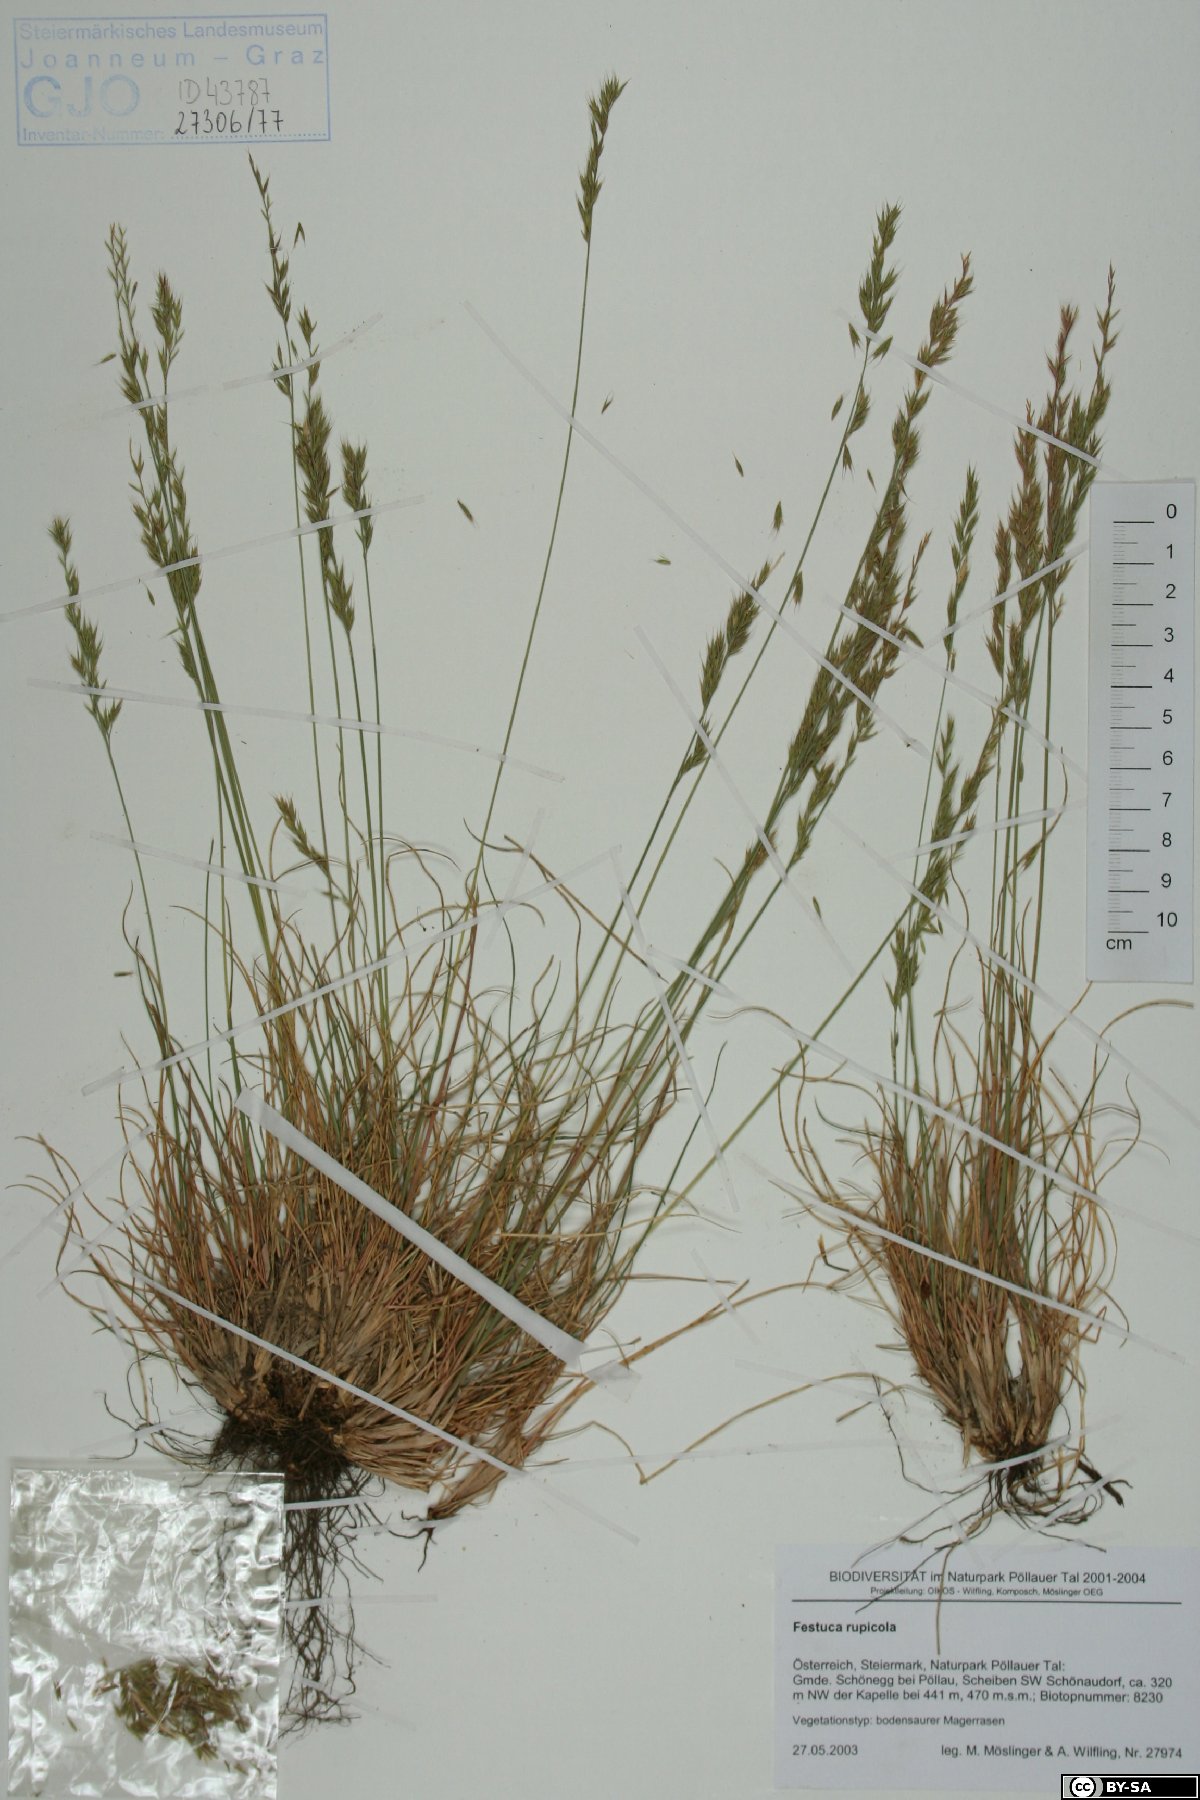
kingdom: Plantae
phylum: Tracheophyta
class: Liliopsida
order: Poales
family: Poaceae
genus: Festuca
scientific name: Festuca rupicola
